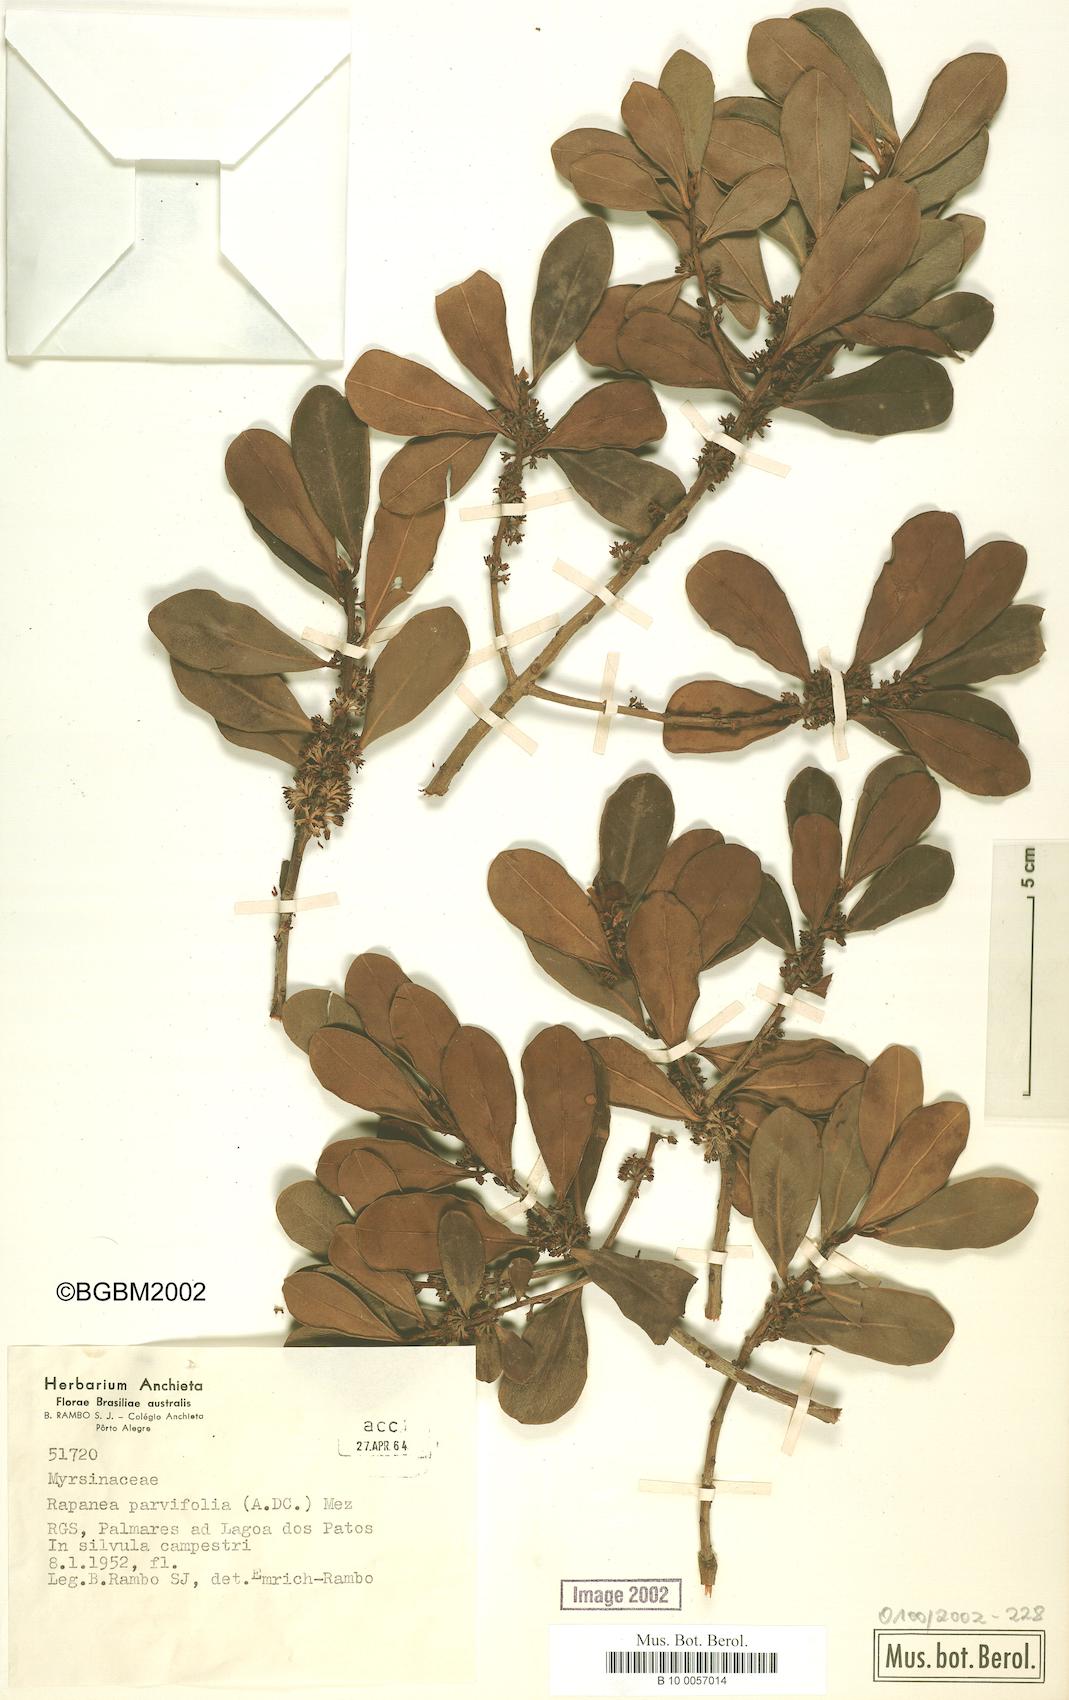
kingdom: Plantae
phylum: Tracheophyta
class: Magnoliopsida
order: Ericales
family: Primulaceae
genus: Myrsine
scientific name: Myrsine parvifolia
